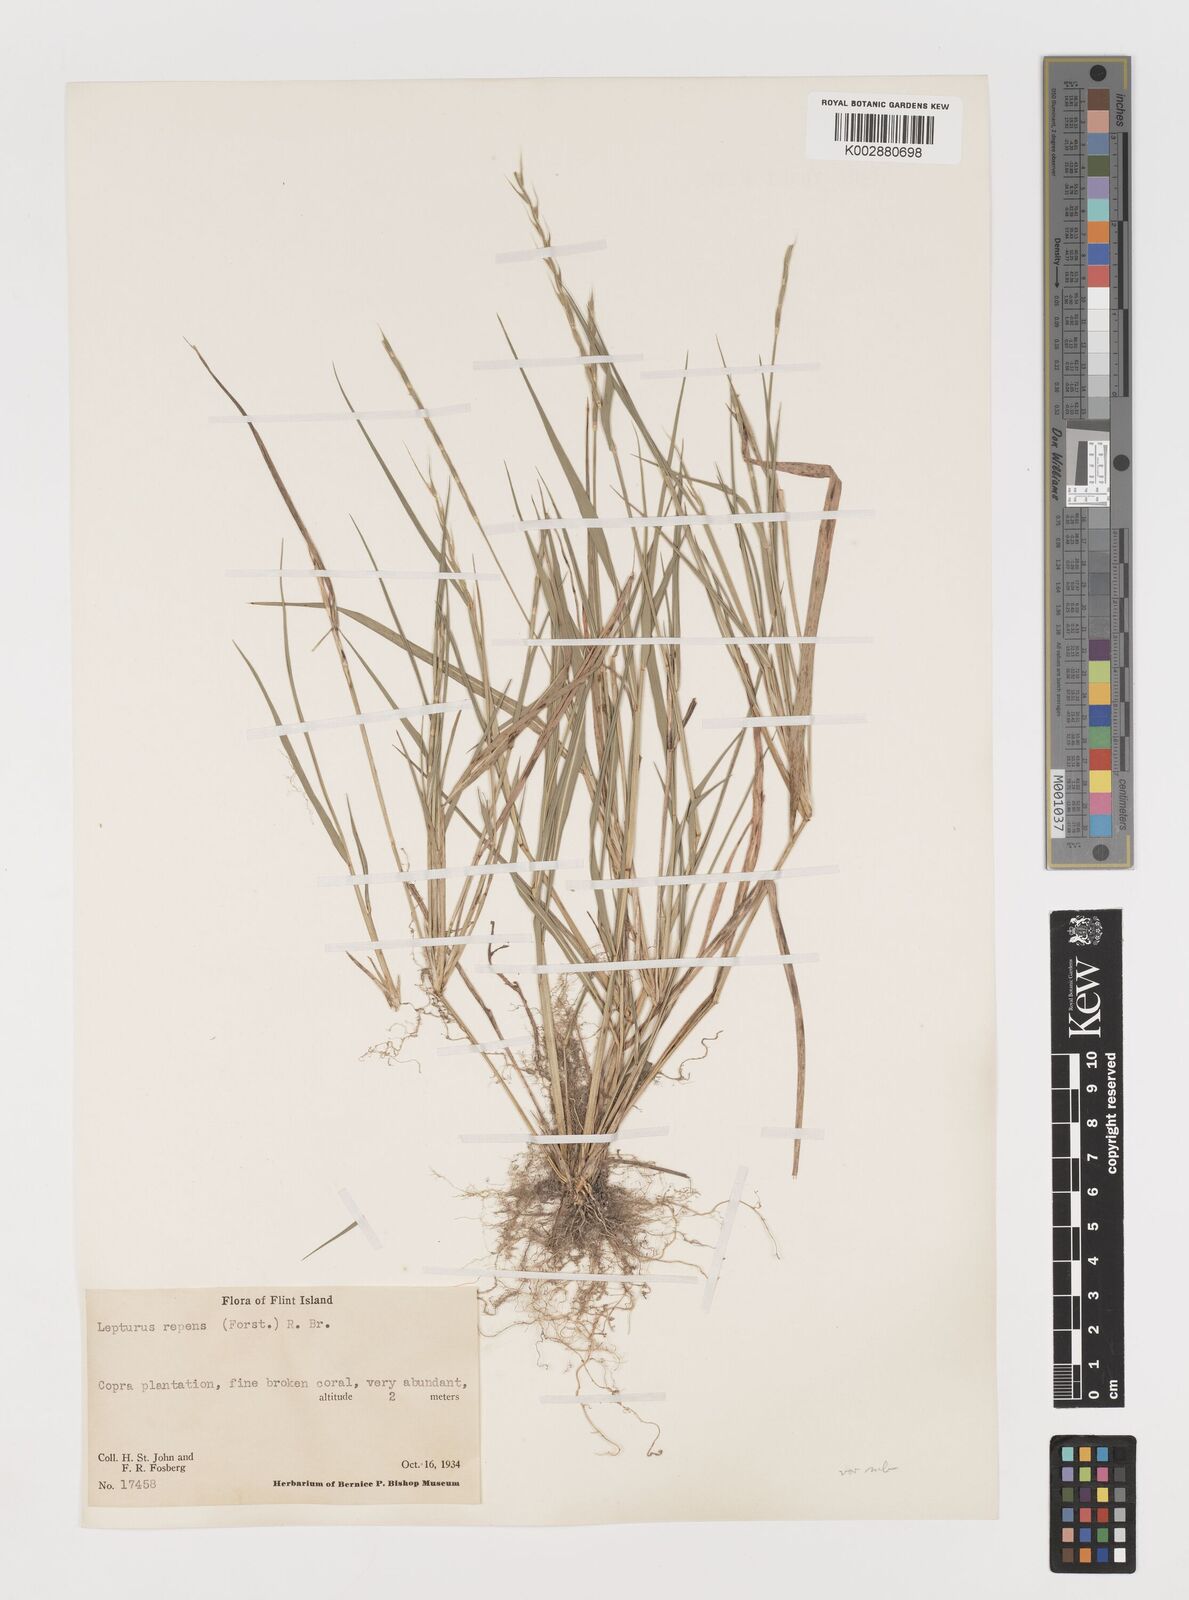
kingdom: Plantae
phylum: Tracheophyta
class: Liliopsida
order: Poales
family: Poaceae
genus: Lepturus
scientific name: Lepturus repens
